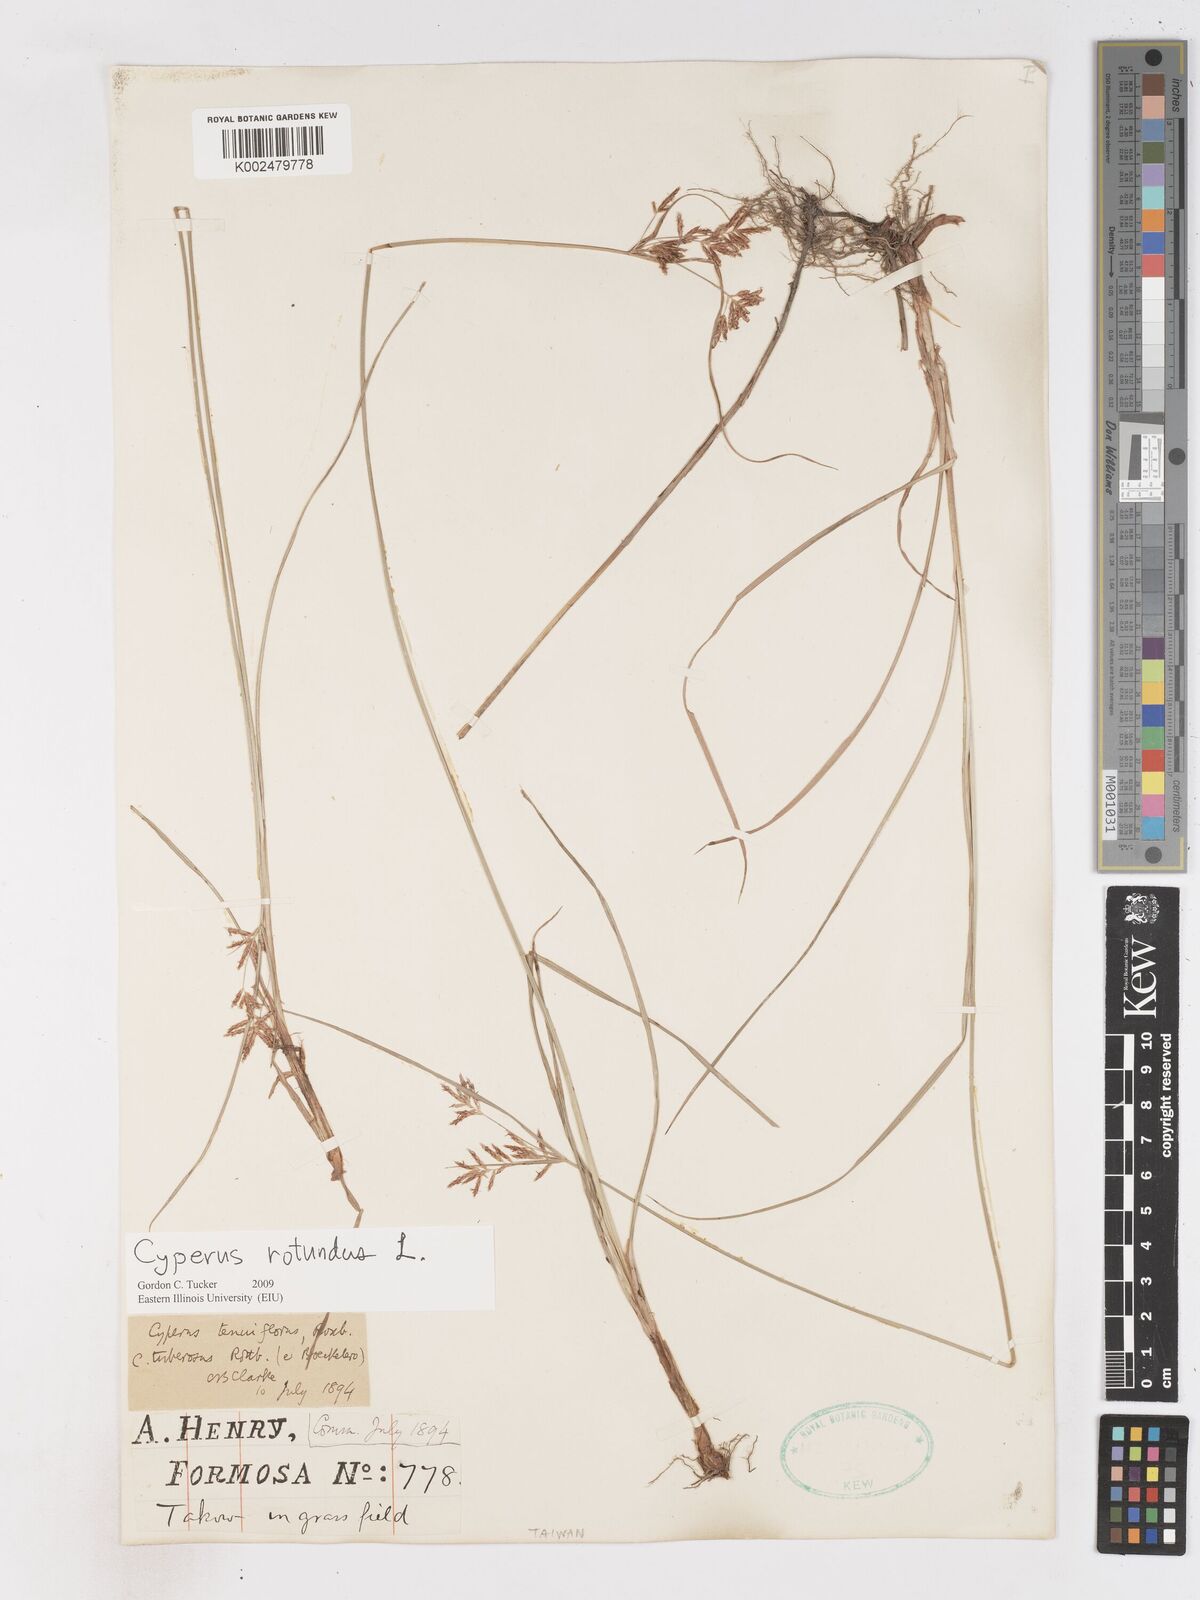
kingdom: Plantae
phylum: Tracheophyta
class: Liliopsida
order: Poales
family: Cyperaceae
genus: Cyperus
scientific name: Cyperus rotundus
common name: Nutgrass
